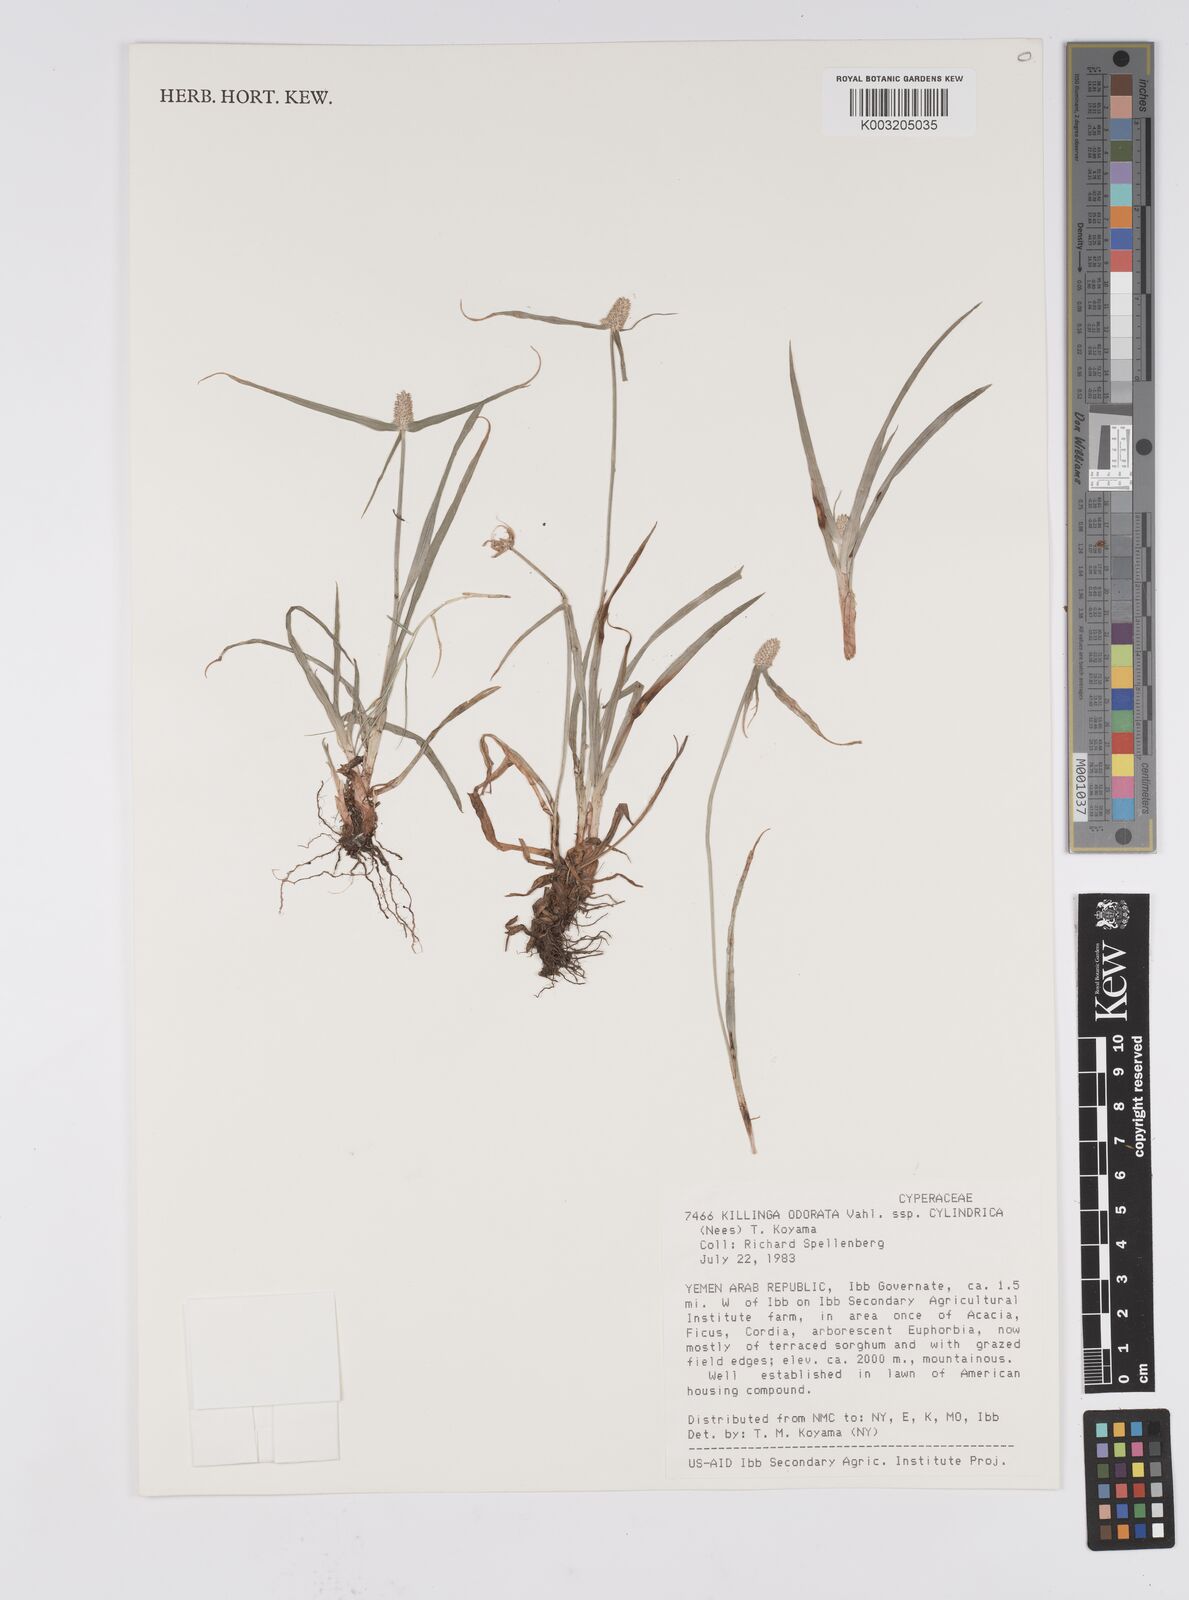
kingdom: Plantae
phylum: Tracheophyta
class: Liliopsida
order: Poales
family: Cyperaceae
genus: Cyperus
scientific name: Cyperus
